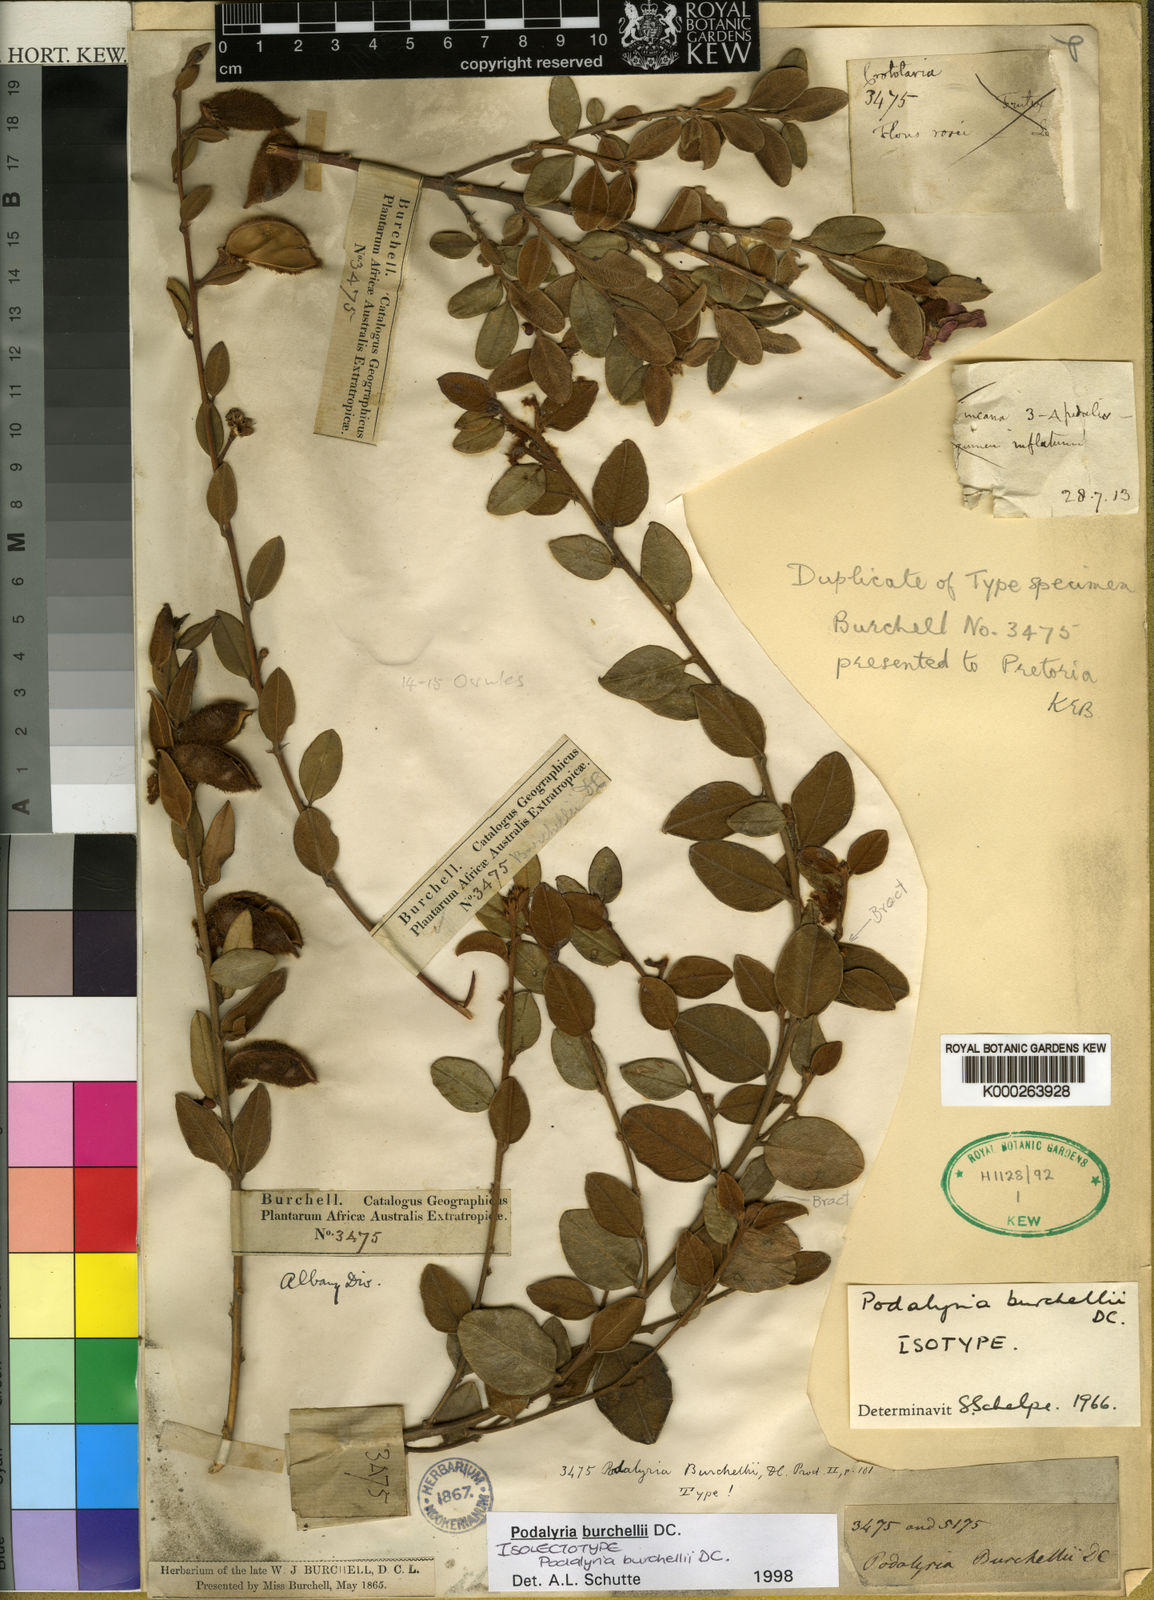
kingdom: Plantae
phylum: Tracheophyta
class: Magnoliopsida
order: Fabales
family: Fabaceae
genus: Podalyria
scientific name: Podalyria burchellii
